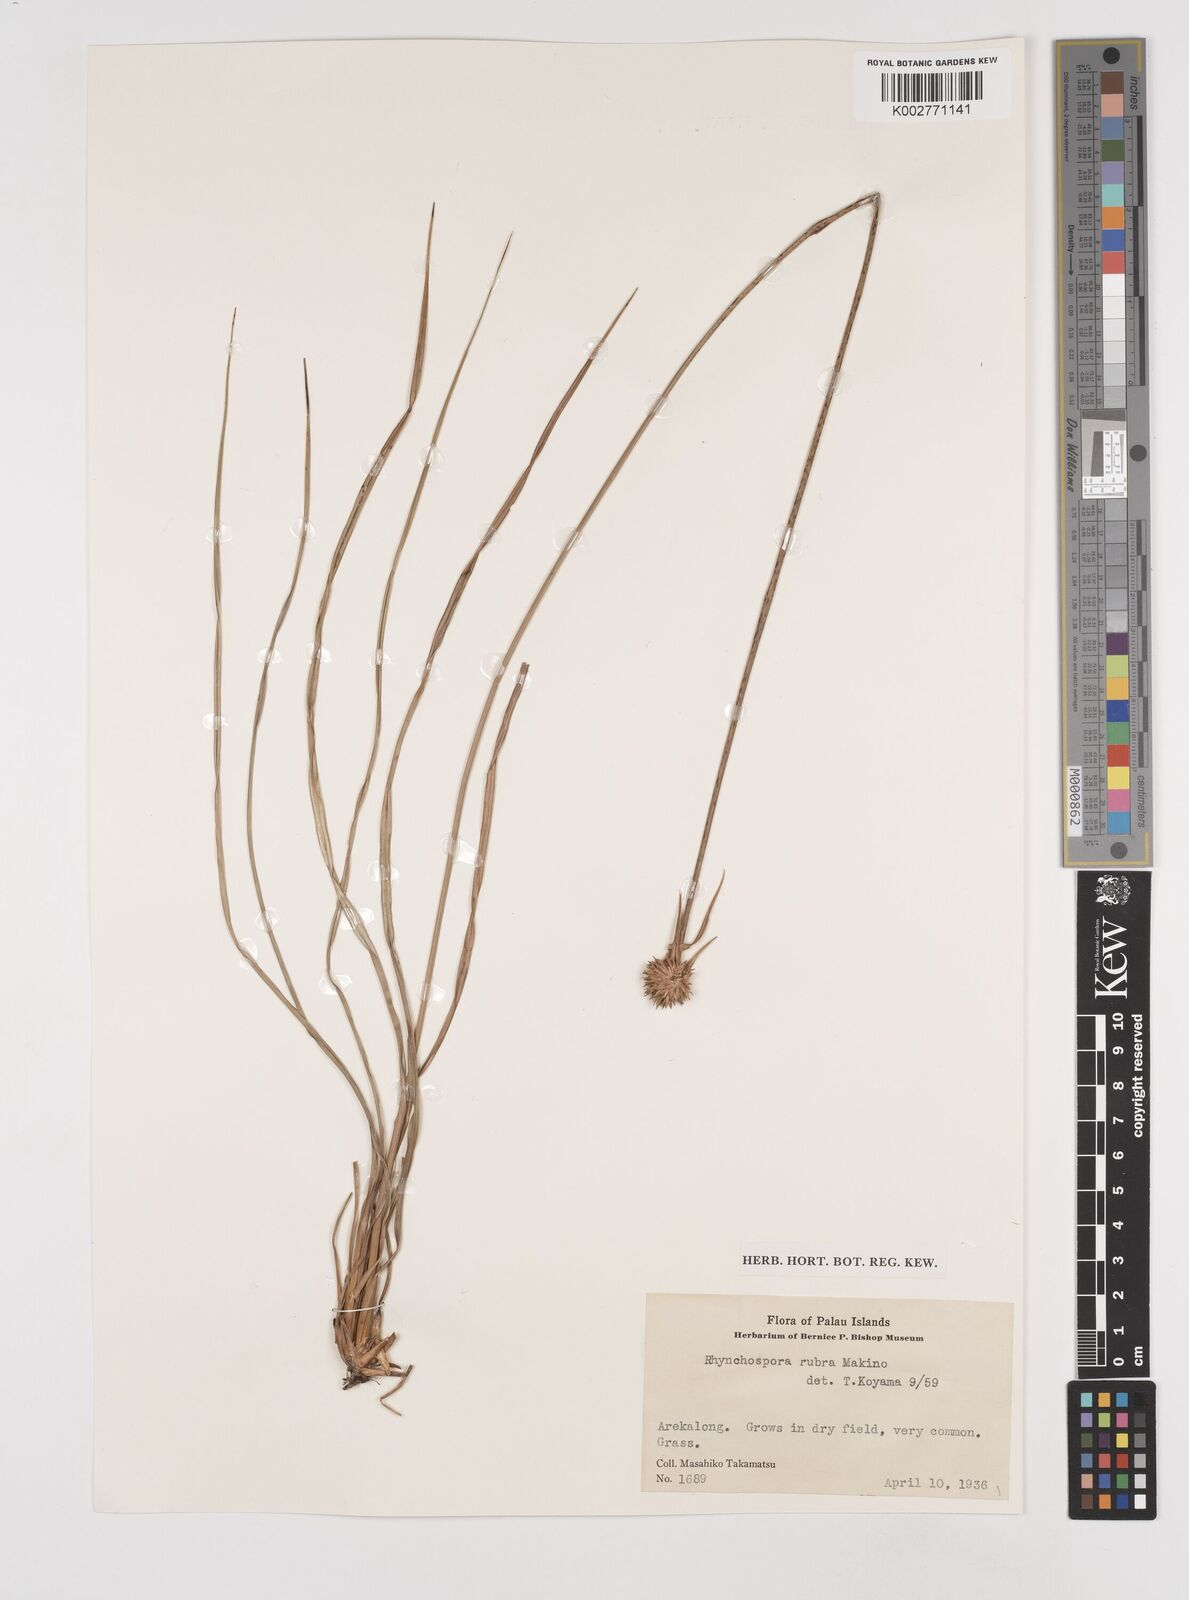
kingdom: Plantae
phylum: Tracheophyta
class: Liliopsida
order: Poales
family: Cyperaceae
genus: Rhynchospora
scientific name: Rhynchospora rubra
